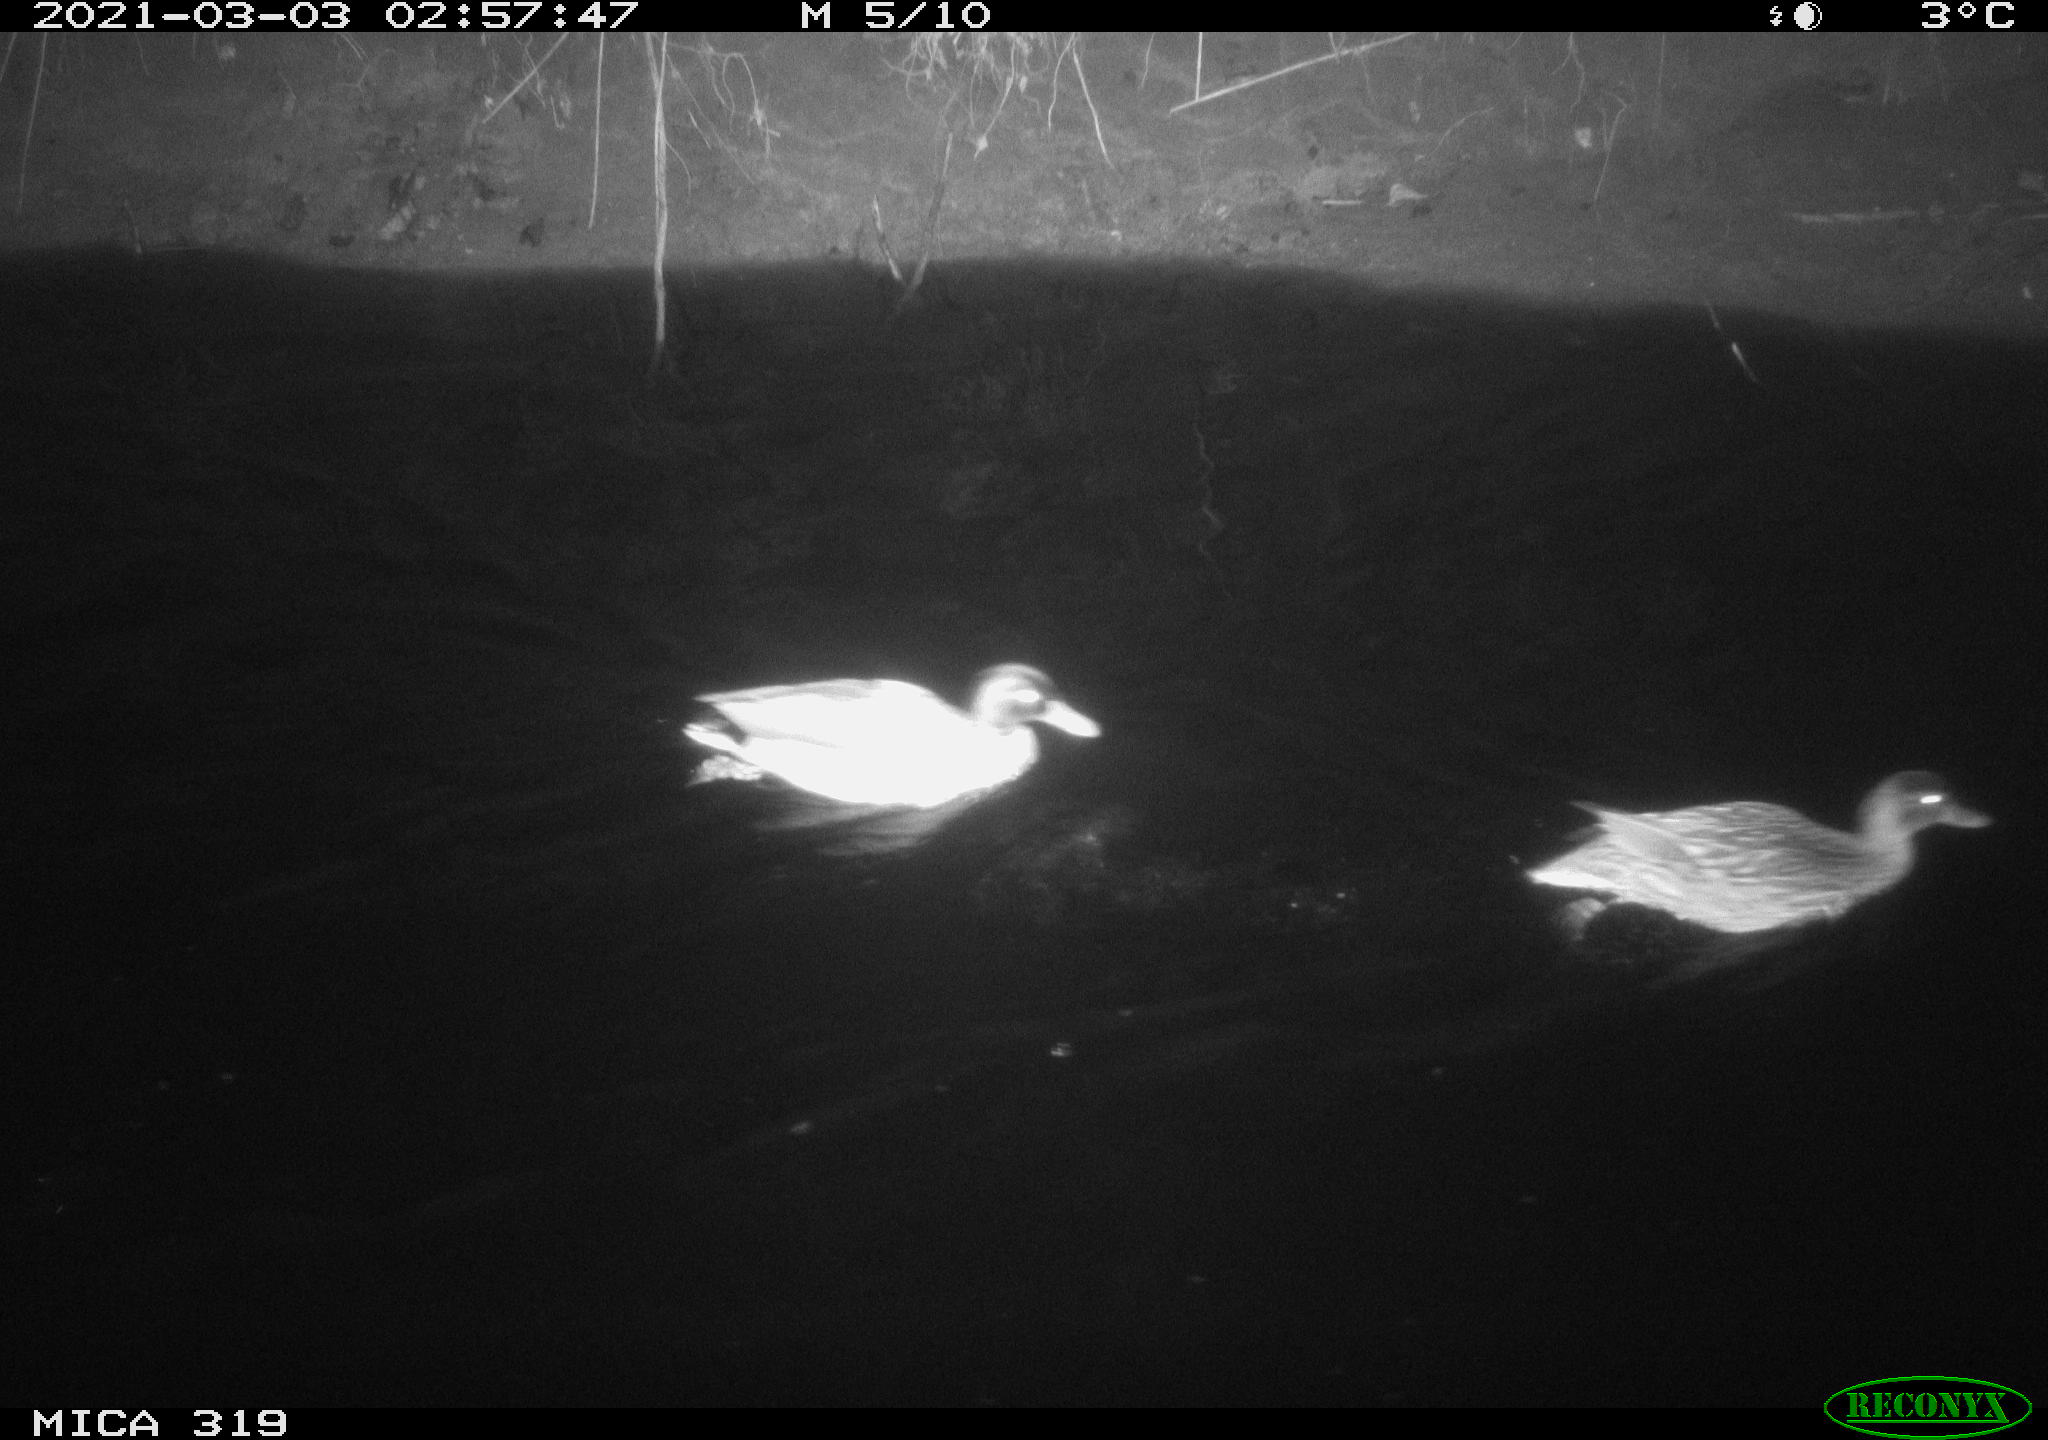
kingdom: Animalia
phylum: Chordata
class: Aves
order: Anseriformes
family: Anatidae
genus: Anas
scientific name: Anas platyrhynchos
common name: Mallard
